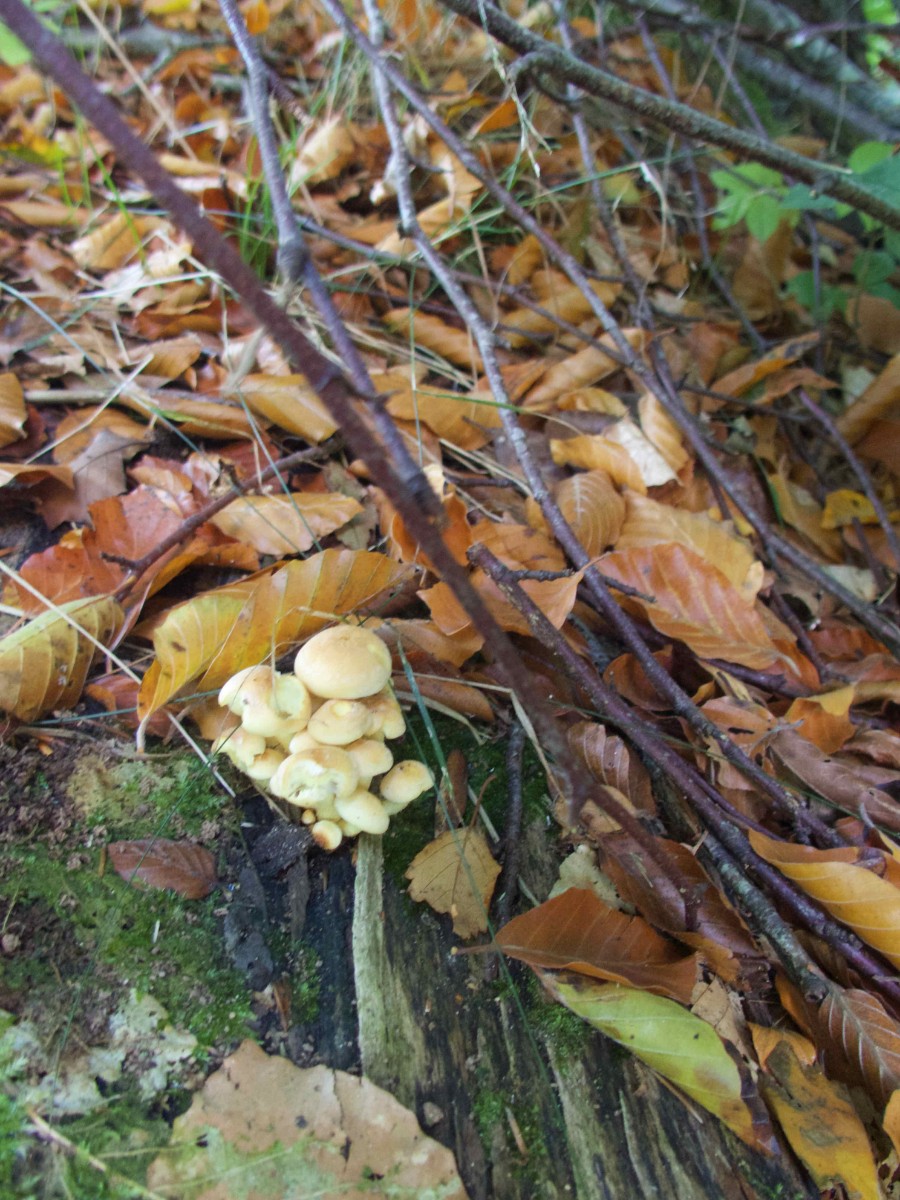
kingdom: Fungi
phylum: Basidiomycota
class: Agaricomycetes
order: Agaricales
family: Strophariaceae
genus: Hypholoma
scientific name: Hypholoma fasciculare
